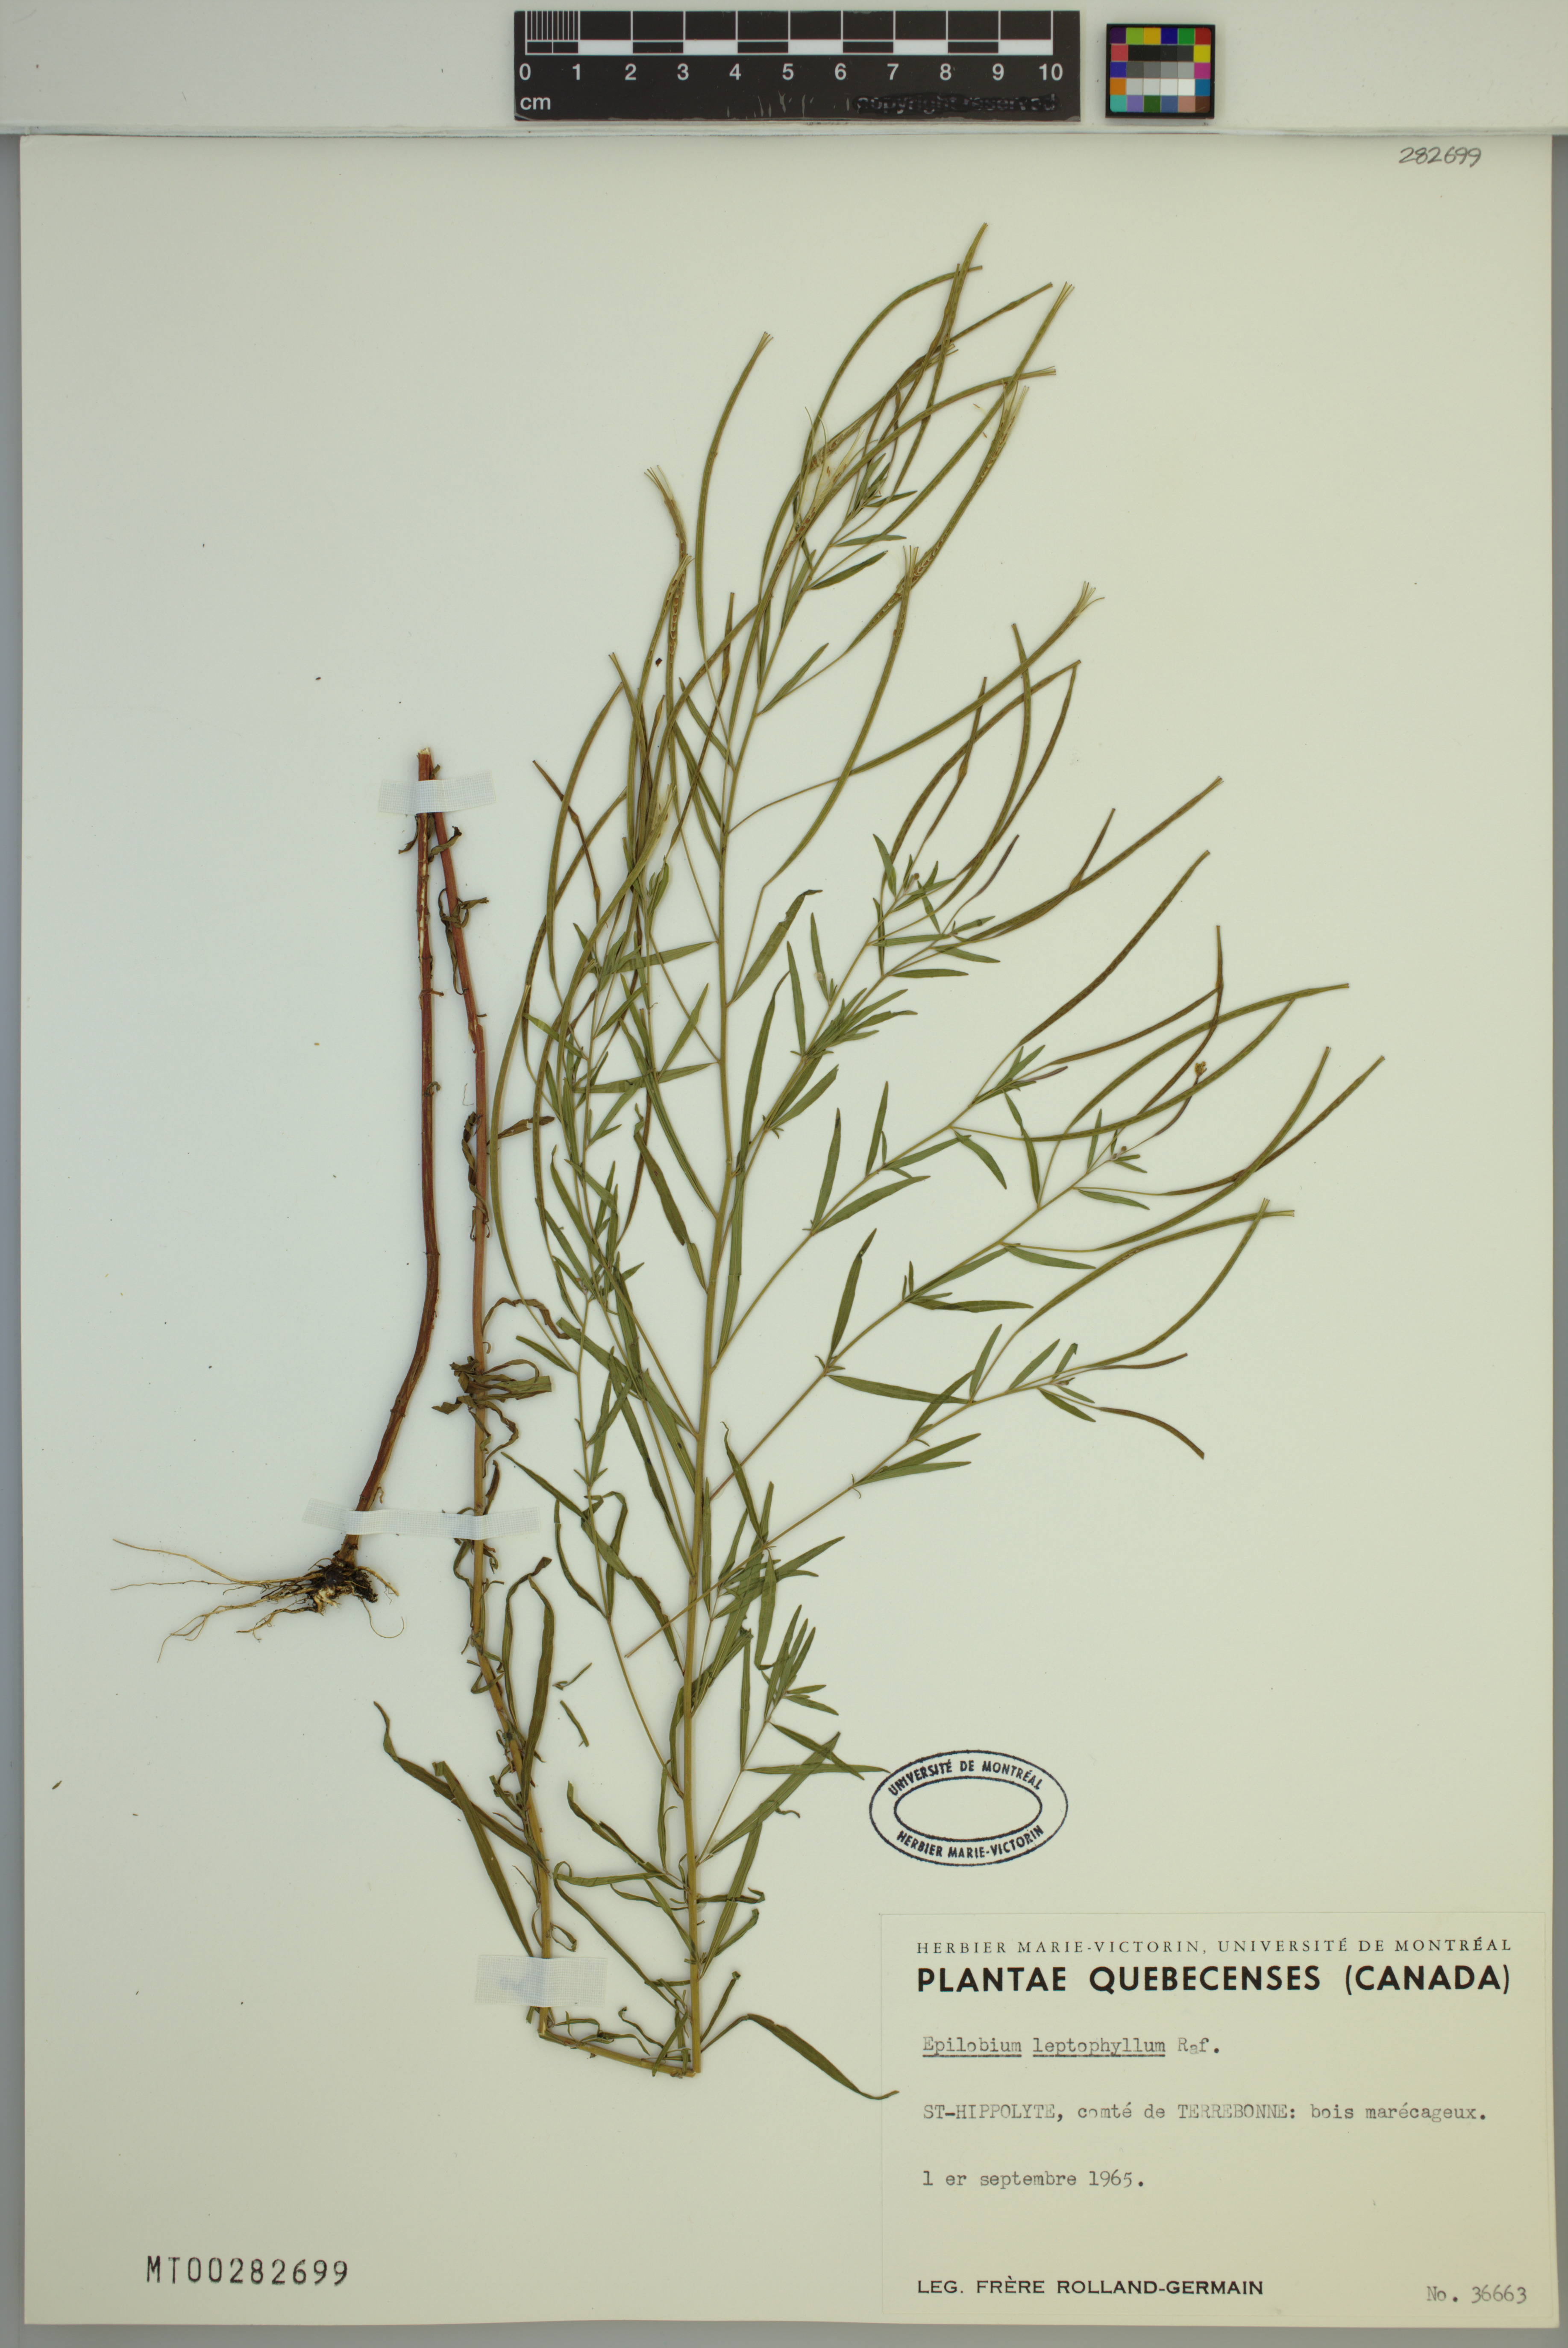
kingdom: Plantae
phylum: Tracheophyta
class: Magnoliopsida
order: Myrtales
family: Onagraceae
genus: Epilobium
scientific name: Epilobium leptophyllum
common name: Bog willowherb
